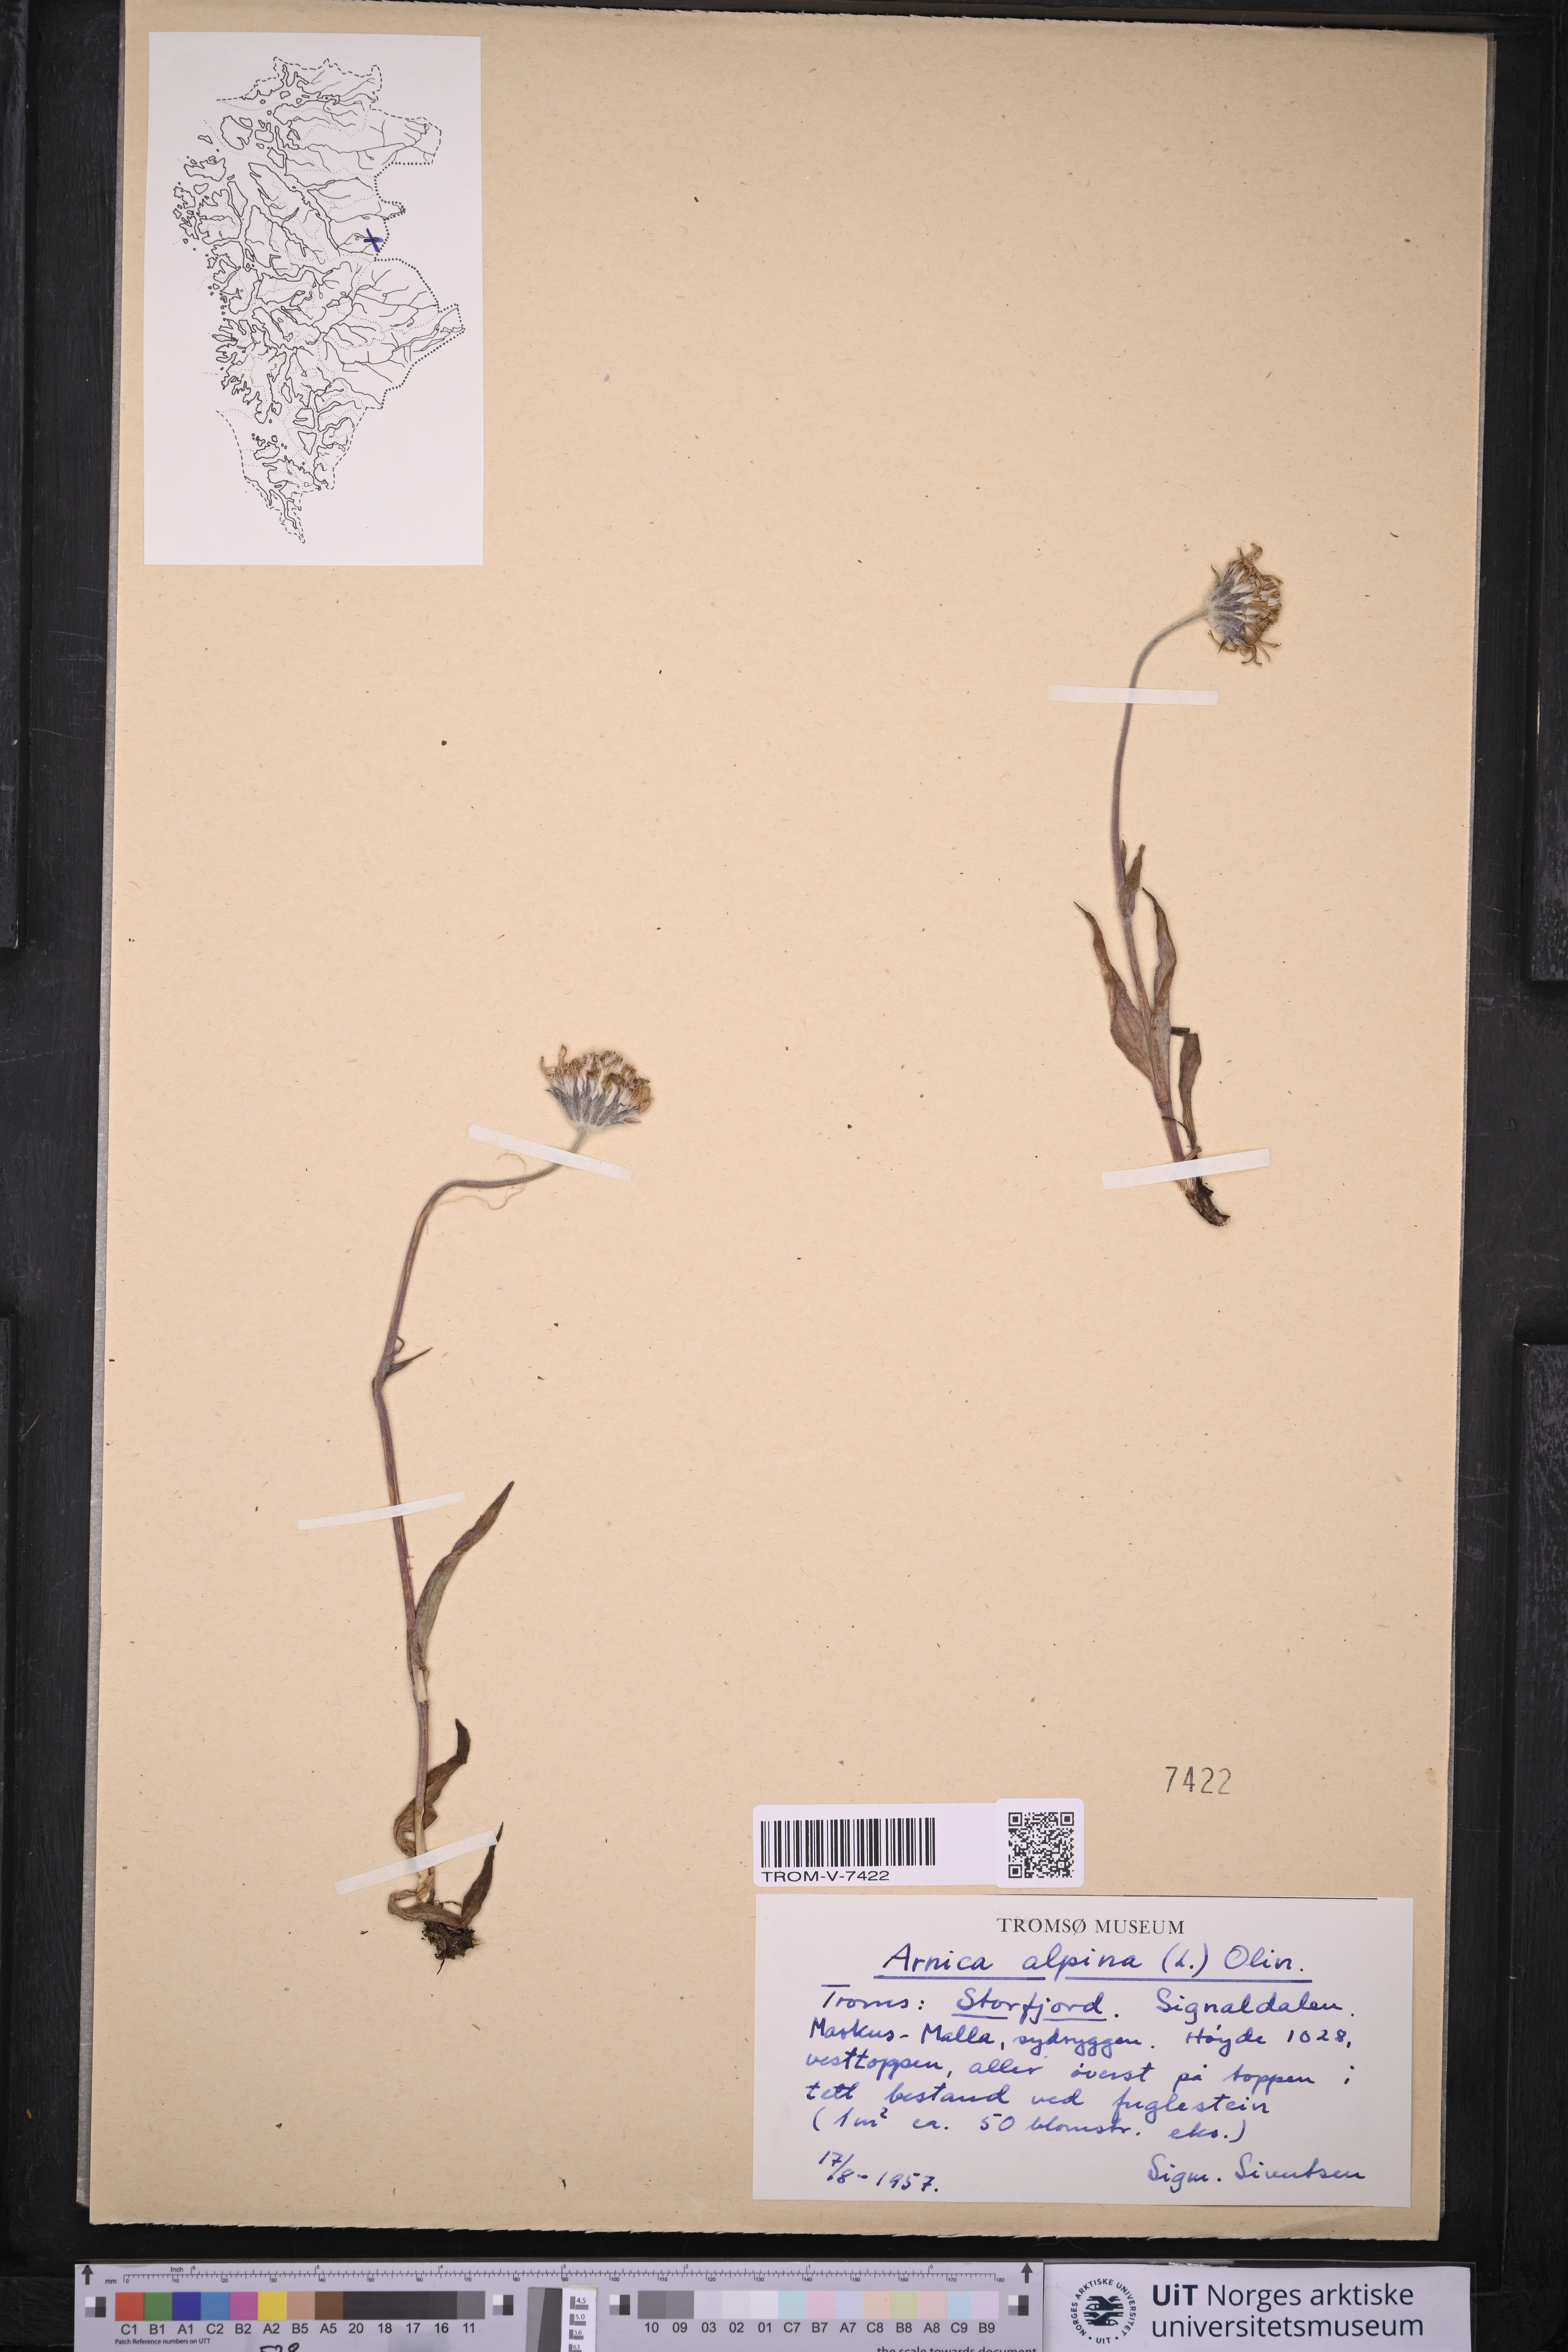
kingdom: Plantae
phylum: Tracheophyta
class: Magnoliopsida
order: Asterales
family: Asteraceae
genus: Arnica
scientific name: Arnica angustifolia
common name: Arctic arnica
